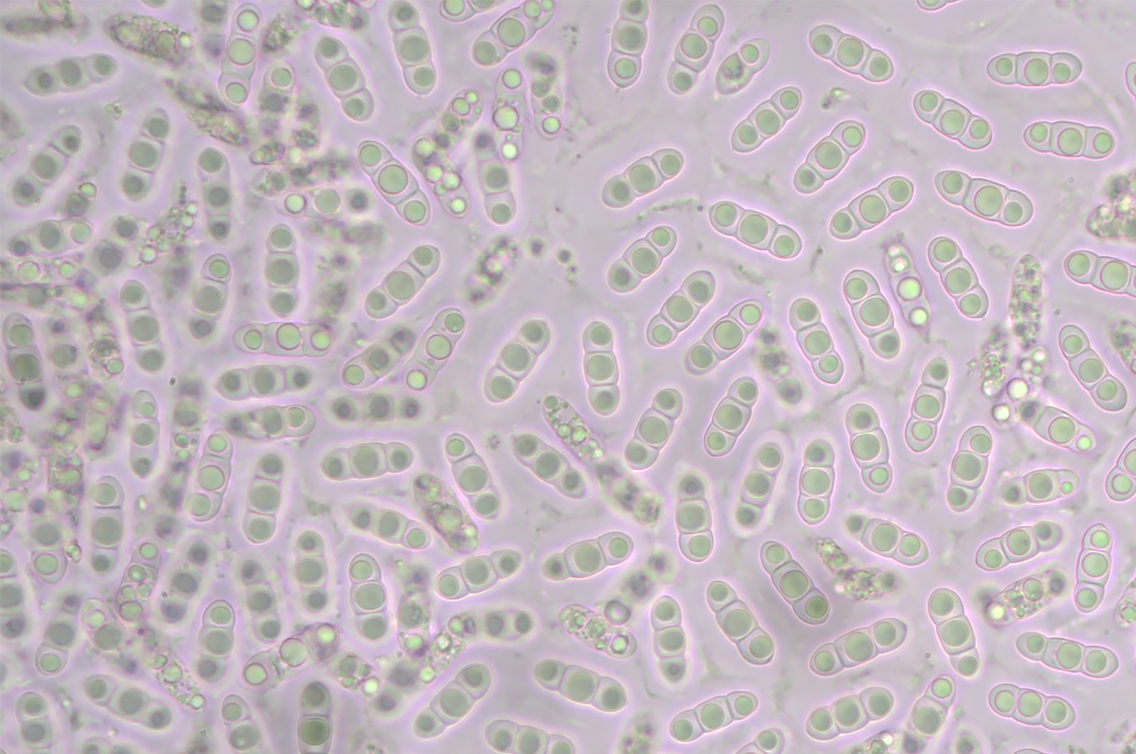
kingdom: Fungi
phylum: Ascomycota
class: Sordariomycetes
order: Xylariales
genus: Melomastia
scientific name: Melomastia mastoidea
